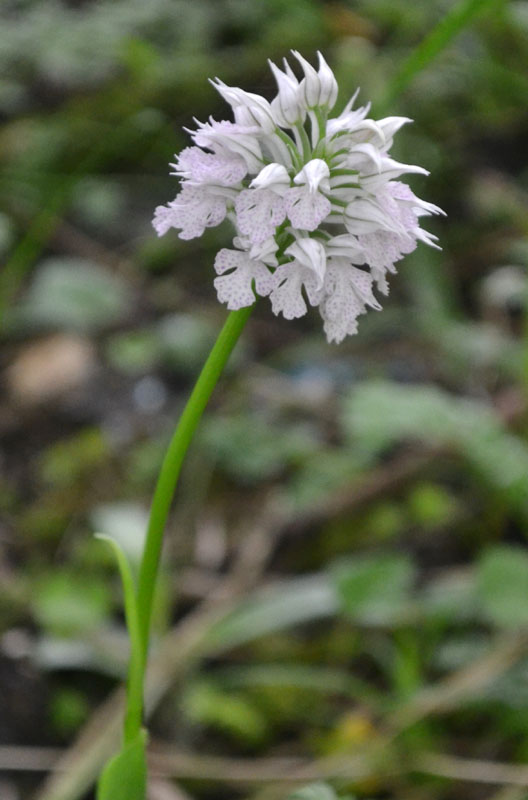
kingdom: Plantae
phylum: Tracheophyta
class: Liliopsida
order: Asparagales
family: Orchidaceae
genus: Neotinea
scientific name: Neotinea tridentata
